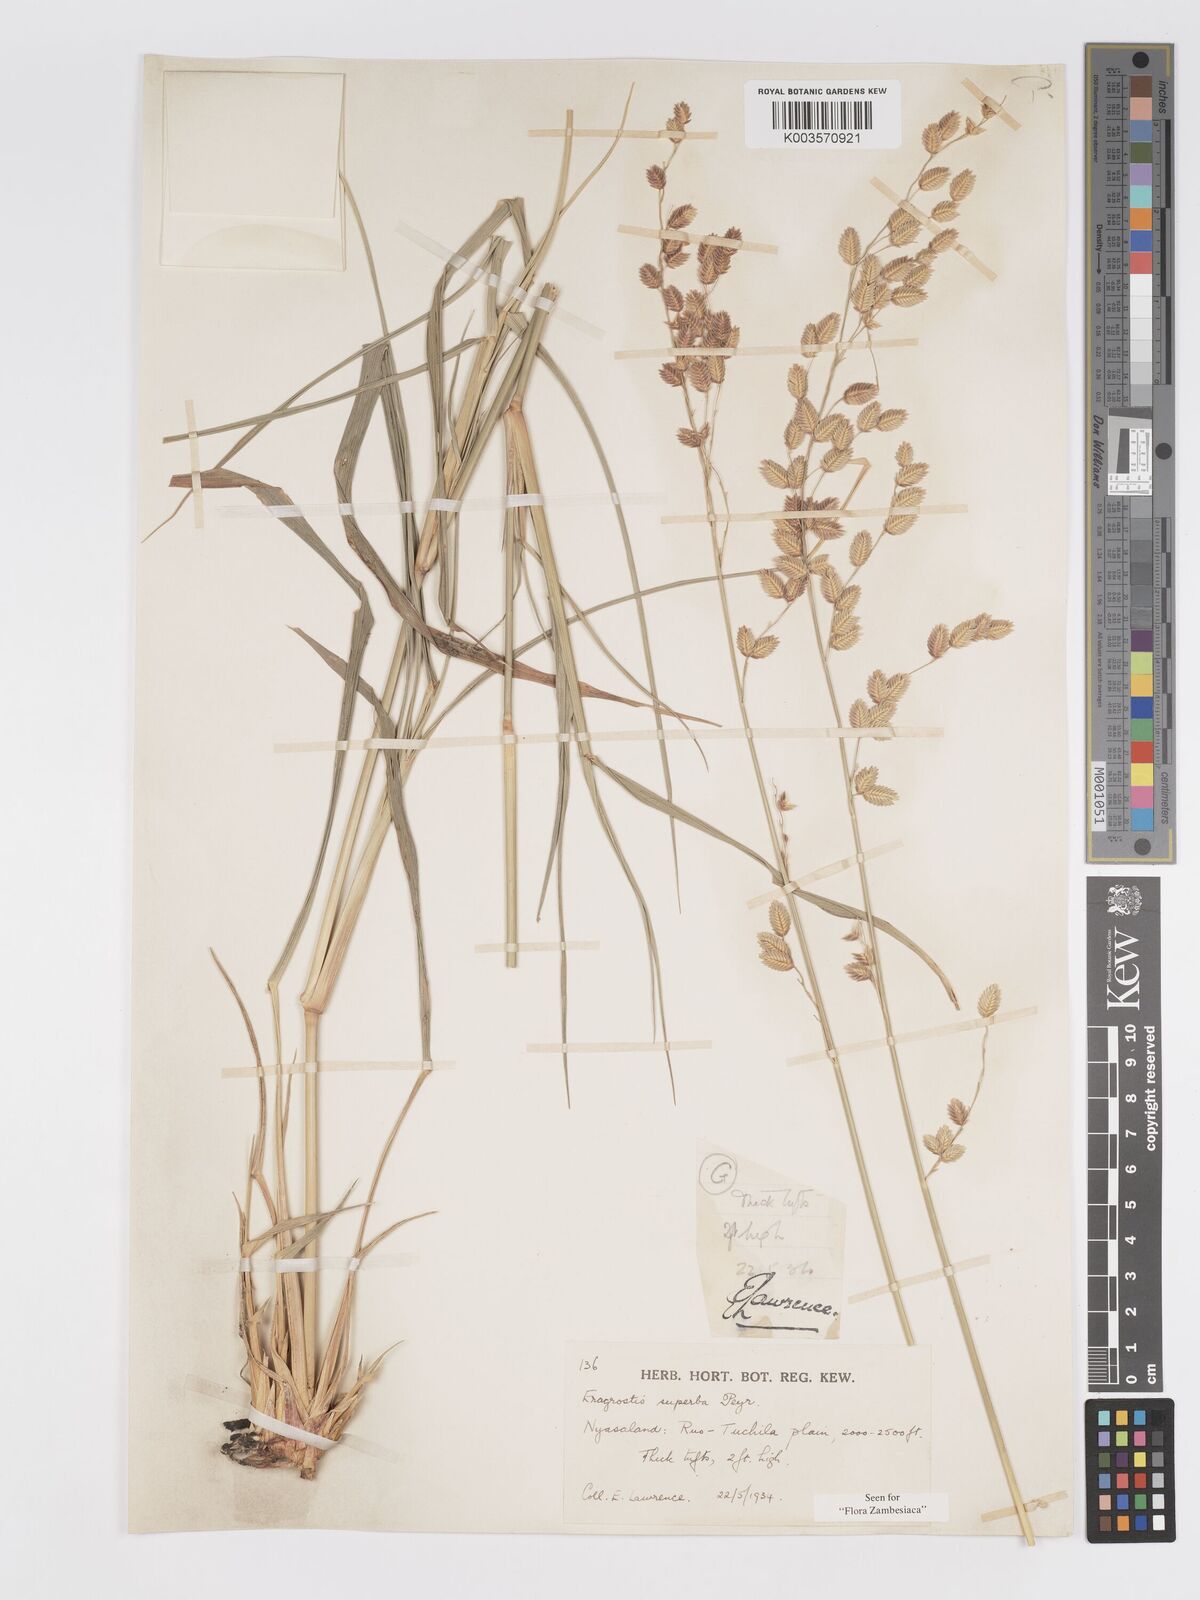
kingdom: Plantae
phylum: Tracheophyta
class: Liliopsida
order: Poales
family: Poaceae
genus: Eragrostis
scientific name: Eragrostis superba
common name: Wilman lovegrass
